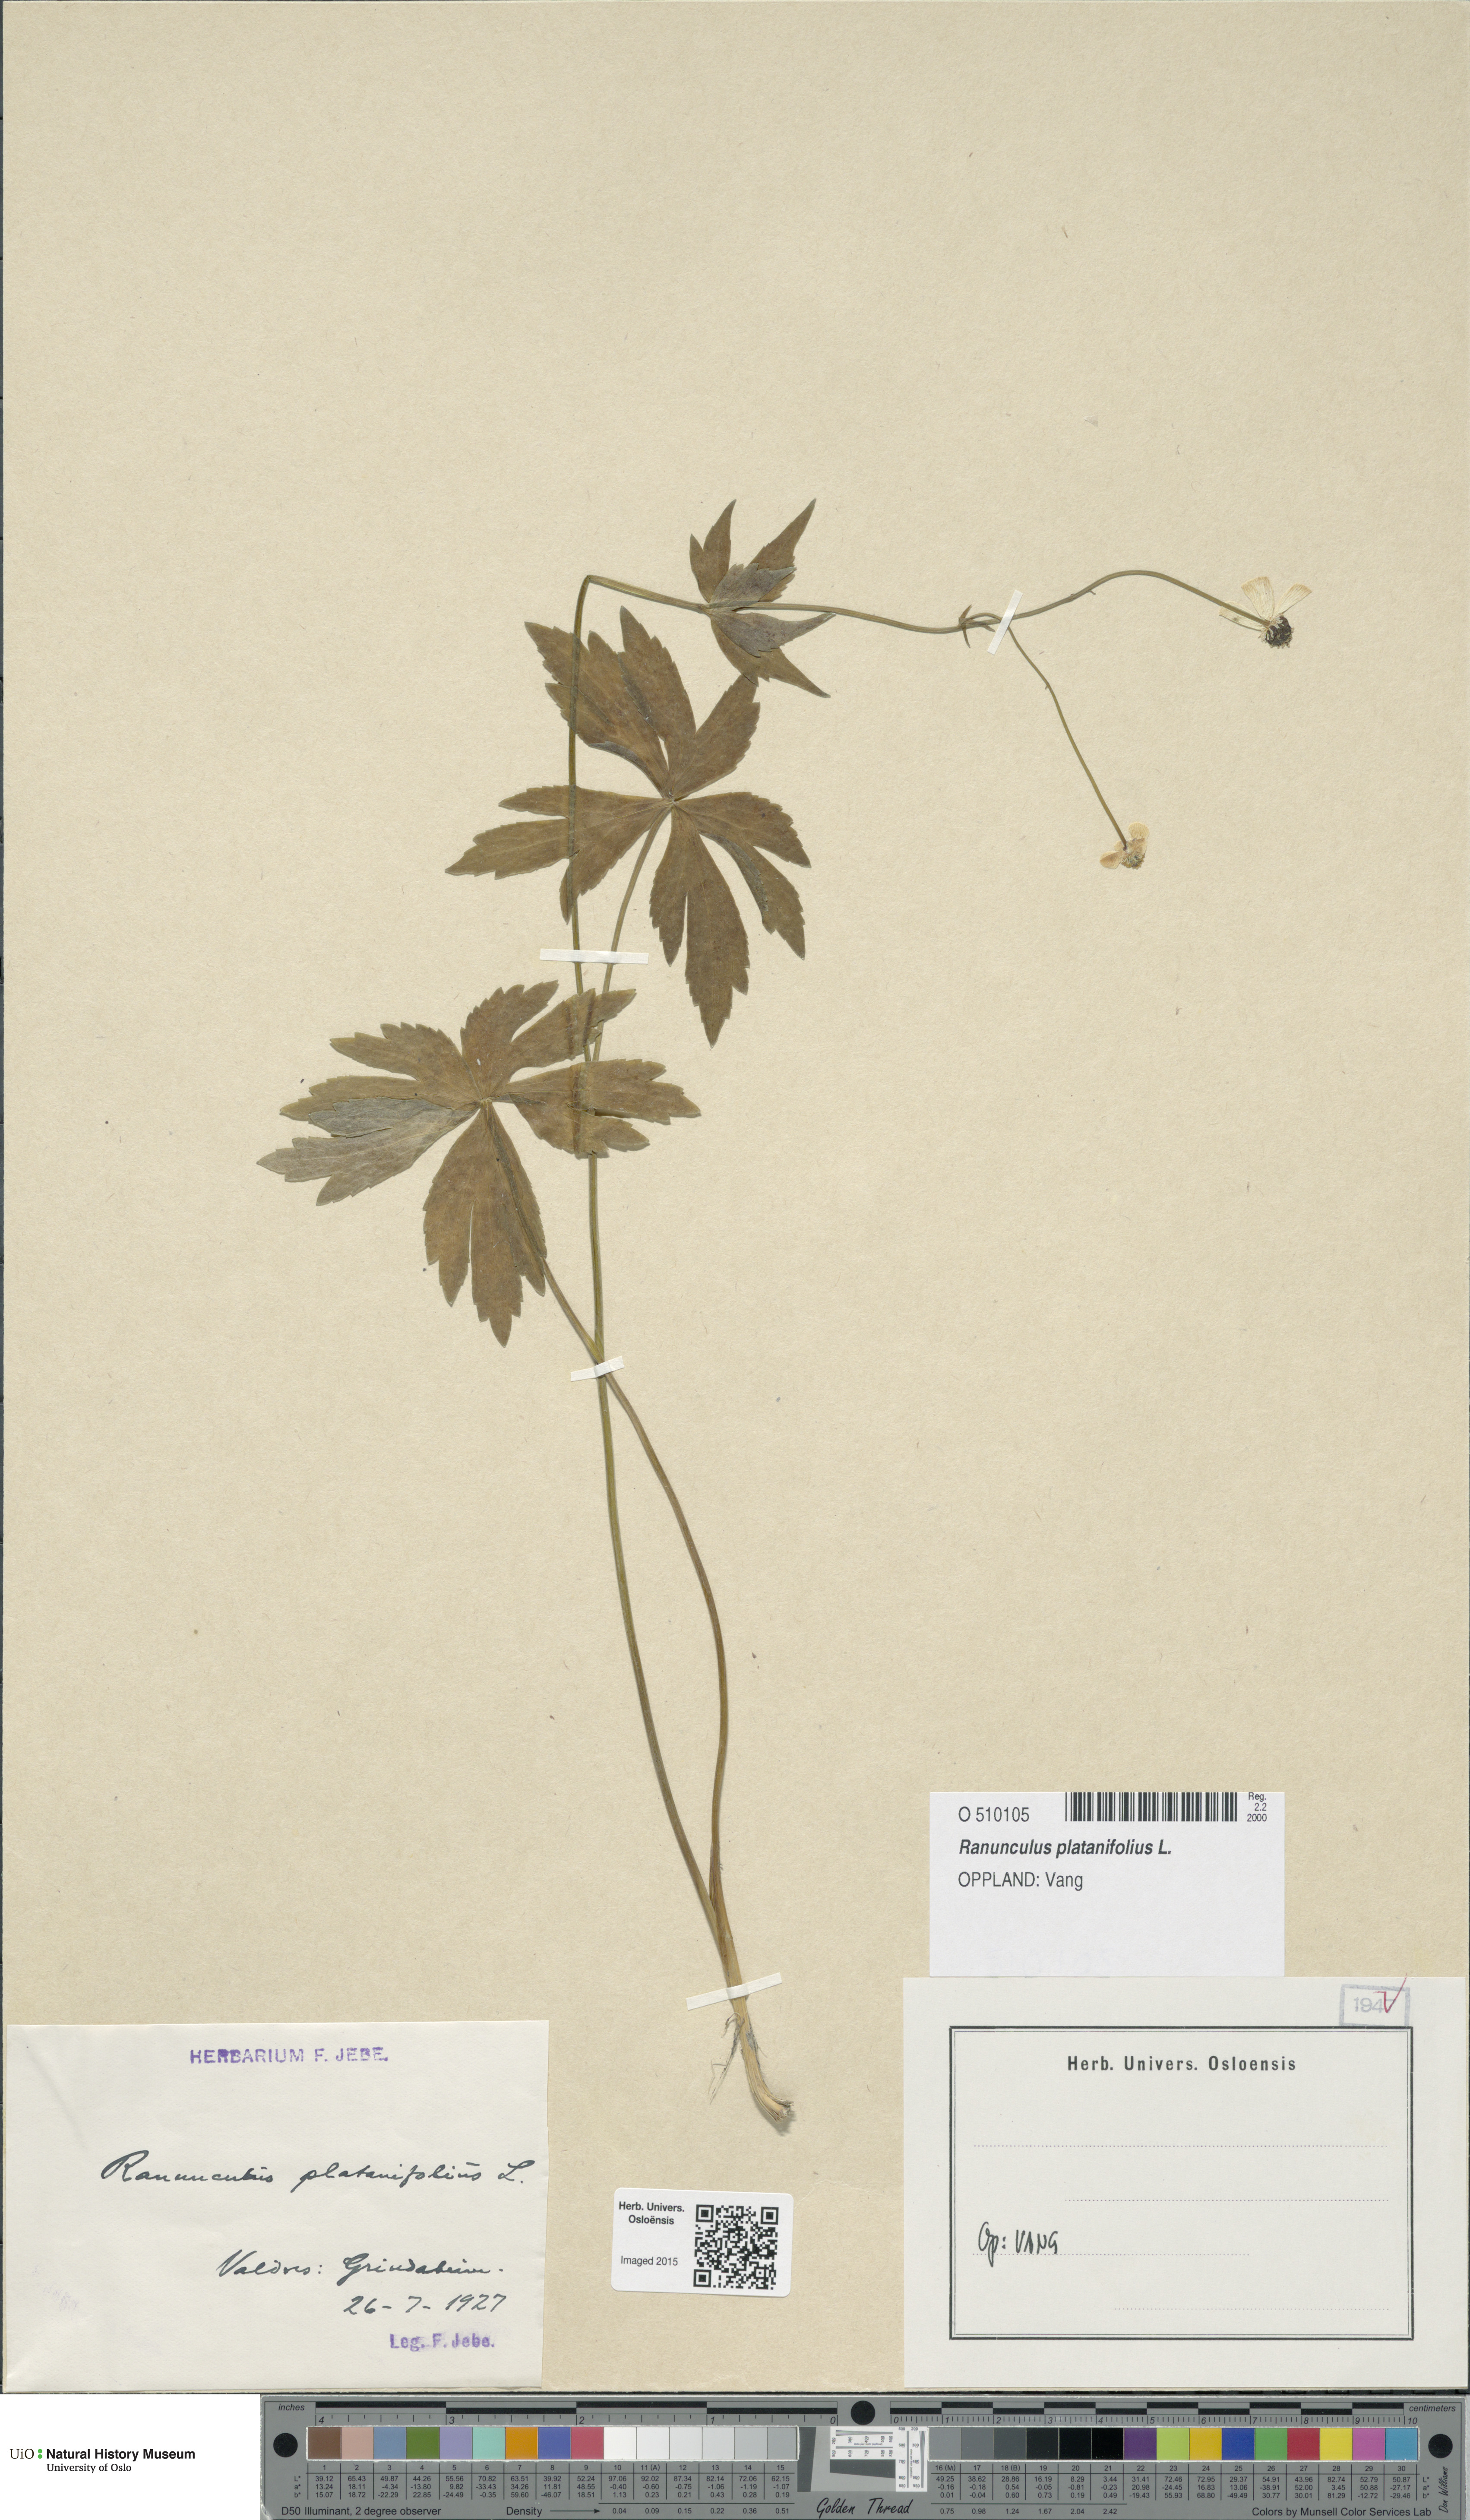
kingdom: Plantae
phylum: Tracheophyta
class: Magnoliopsida
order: Ranunculales
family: Ranunculaceae
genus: Ranunculus
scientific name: Ranunculus platanifolius
